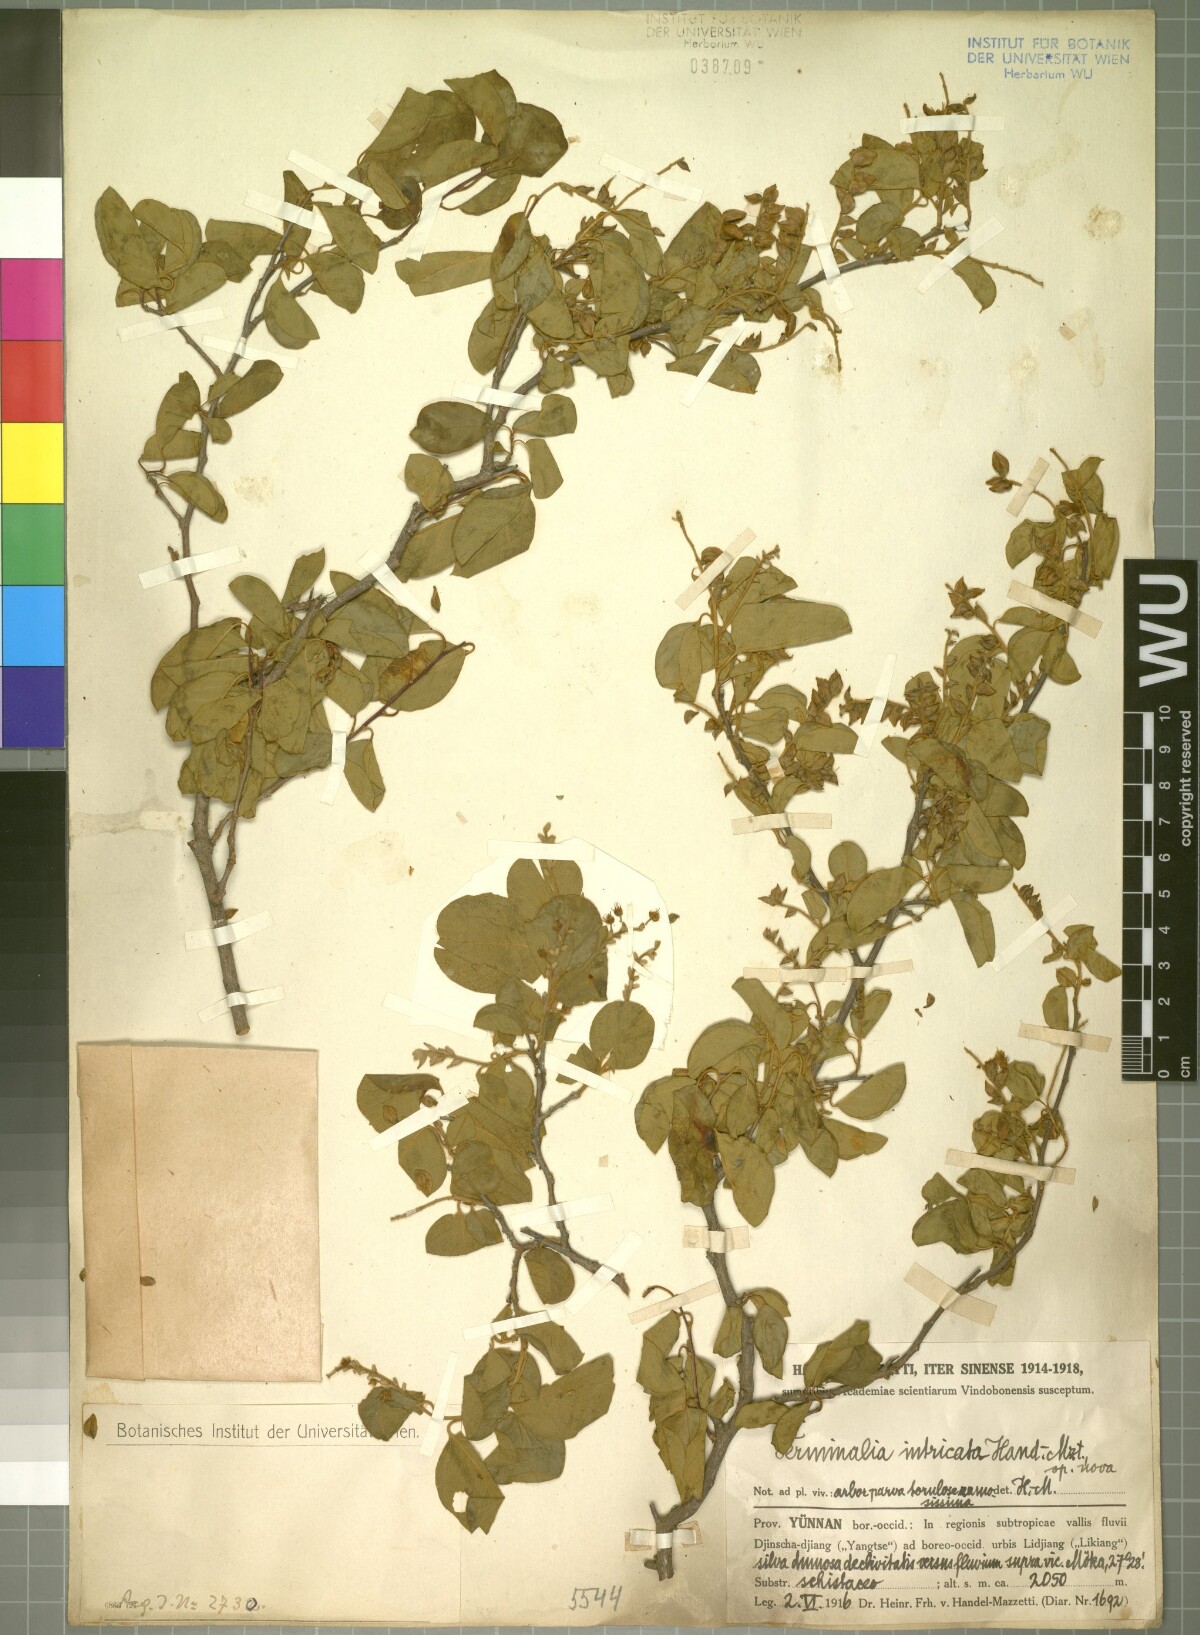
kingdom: Plantae
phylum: Tracheophyta
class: Magnoliopsida
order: Myrtales
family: Combretaceae
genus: Terminalia
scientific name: Terminalia franchetii
